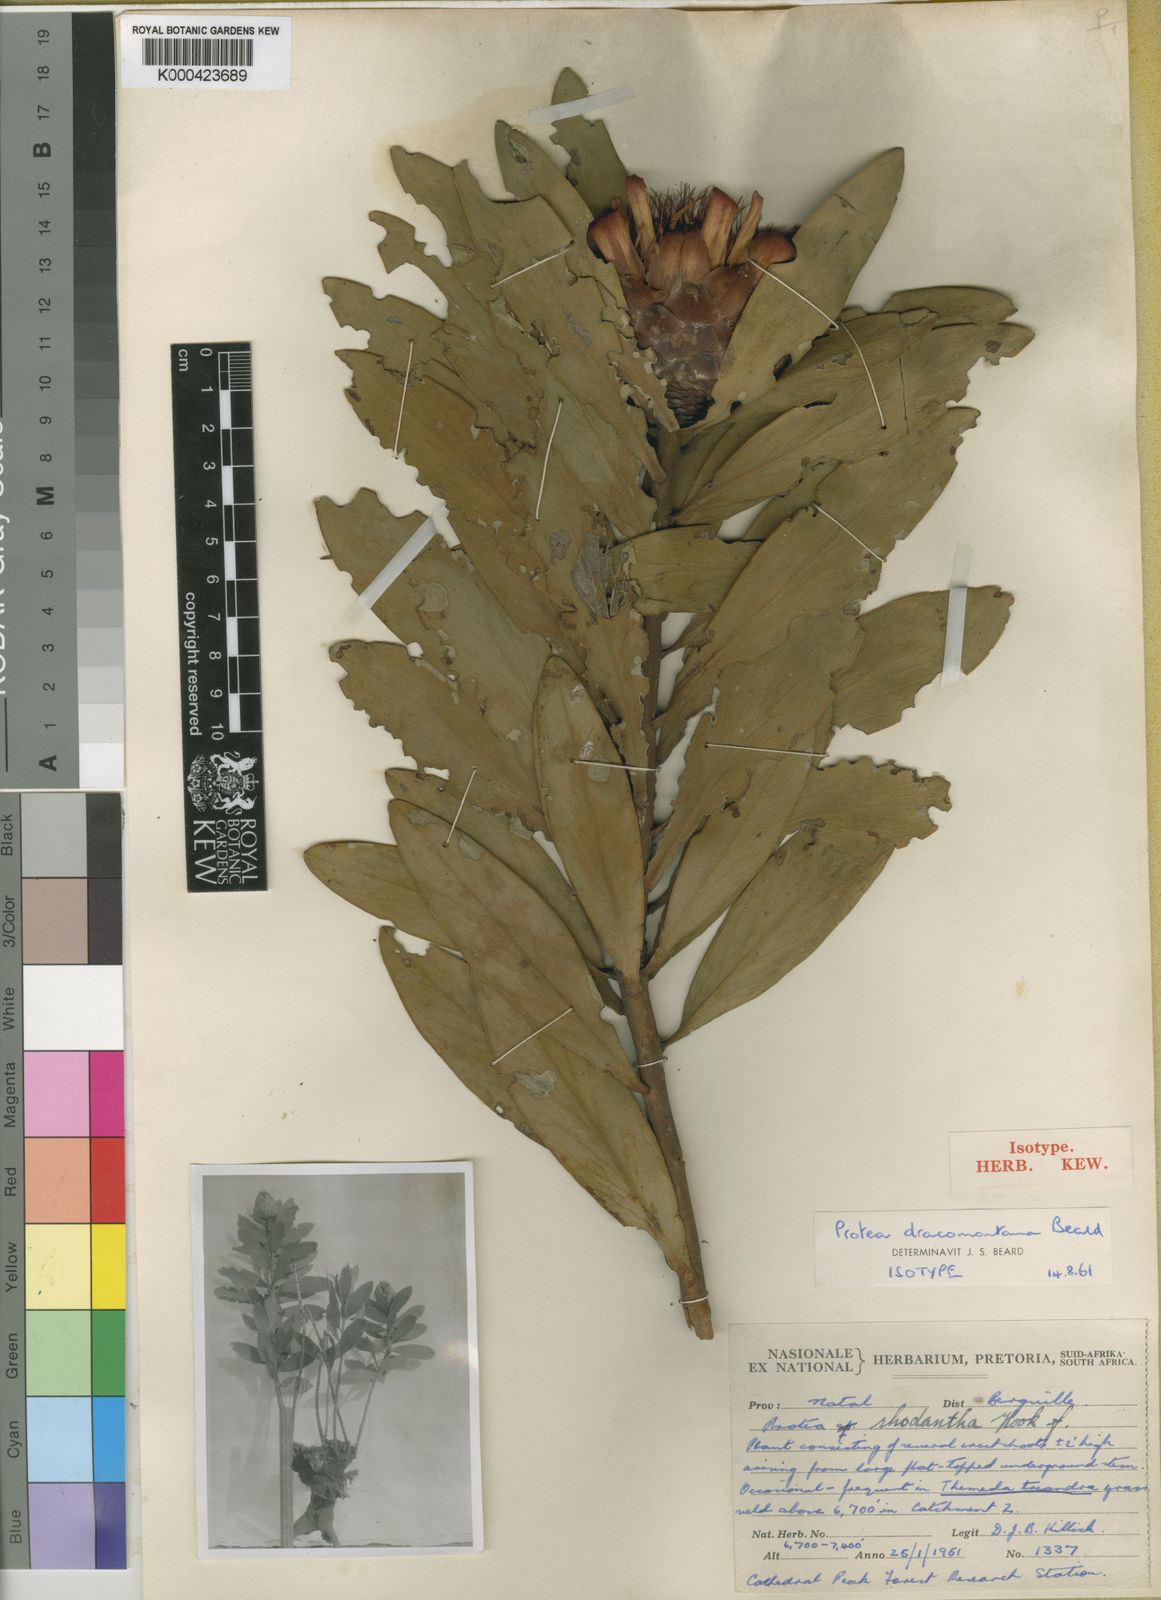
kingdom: Plantae
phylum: Tracheophyta
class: Magnoliopsida
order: Proteales
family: Proteaceae
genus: Protea
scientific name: Protea dracomontana
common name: Drakensberg dwarf sugarbush
